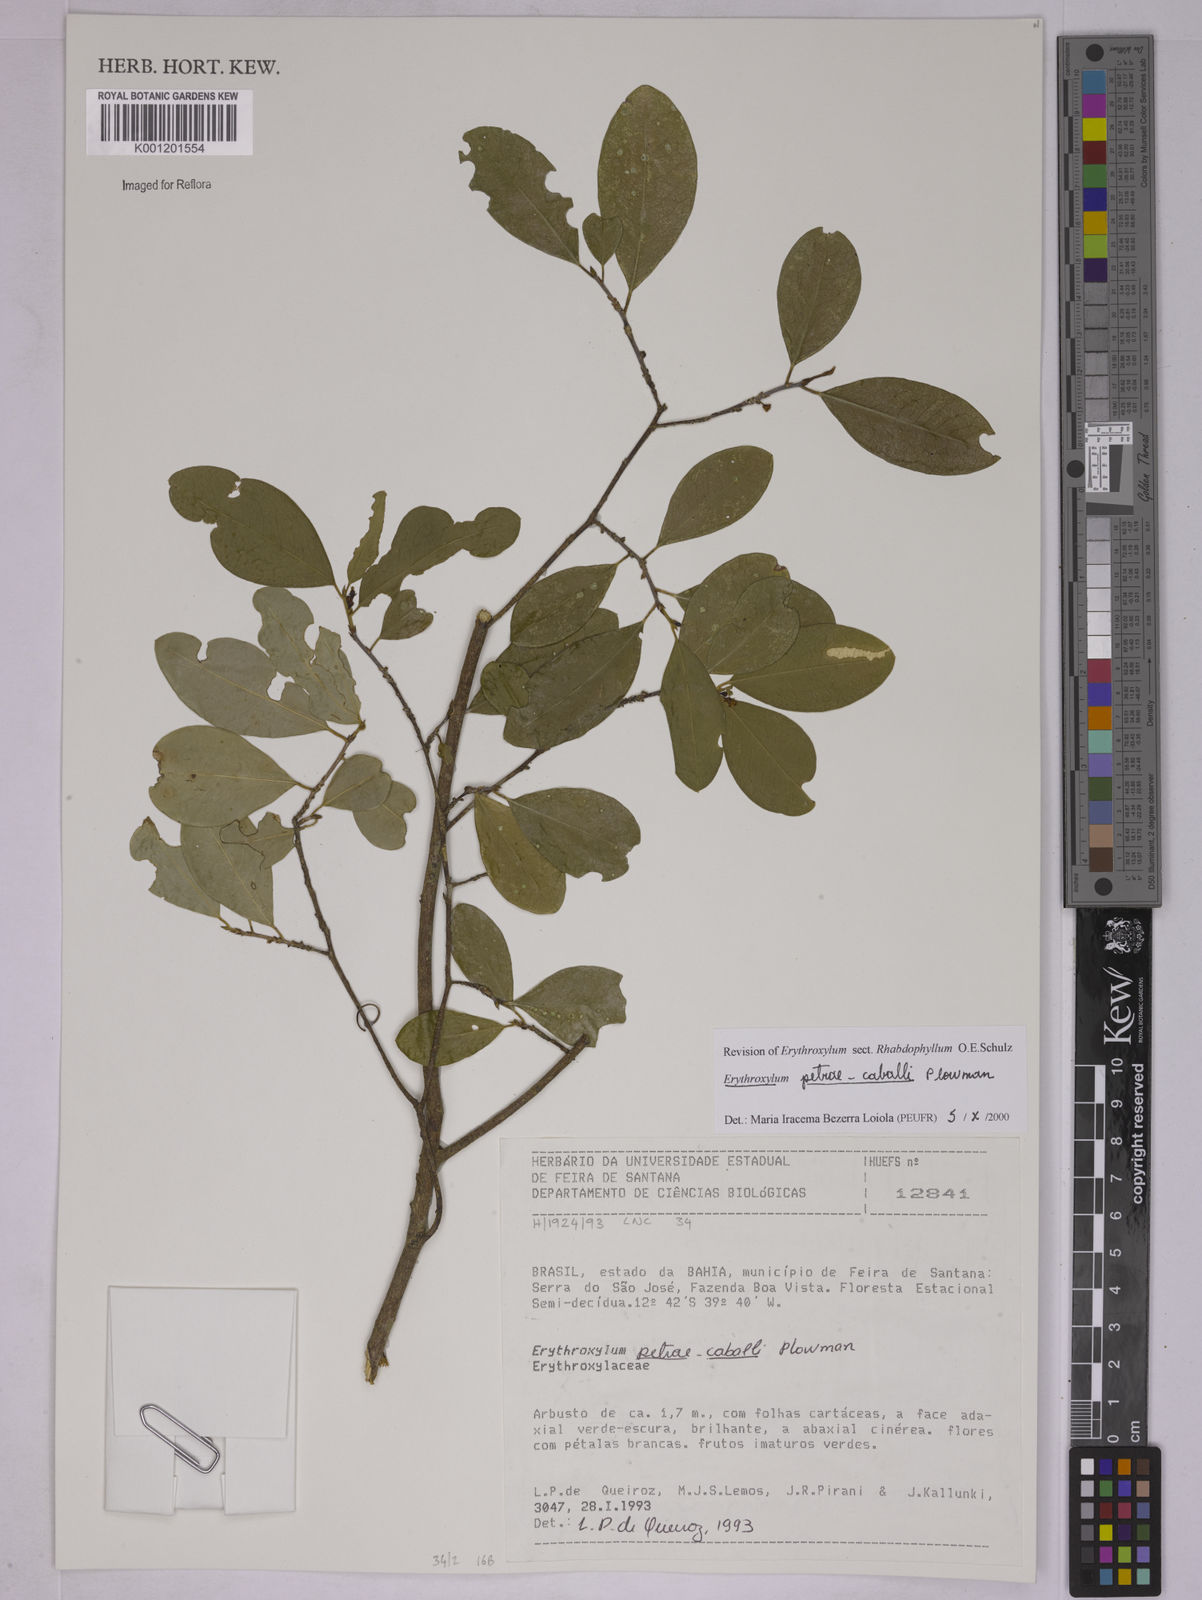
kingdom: Plantae
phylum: Tracheophyta
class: Magnoliopsida
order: Malpighiales
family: Erythroxylaceae
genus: Erythroxylum
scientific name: Erythroxylum petrae-caballi
